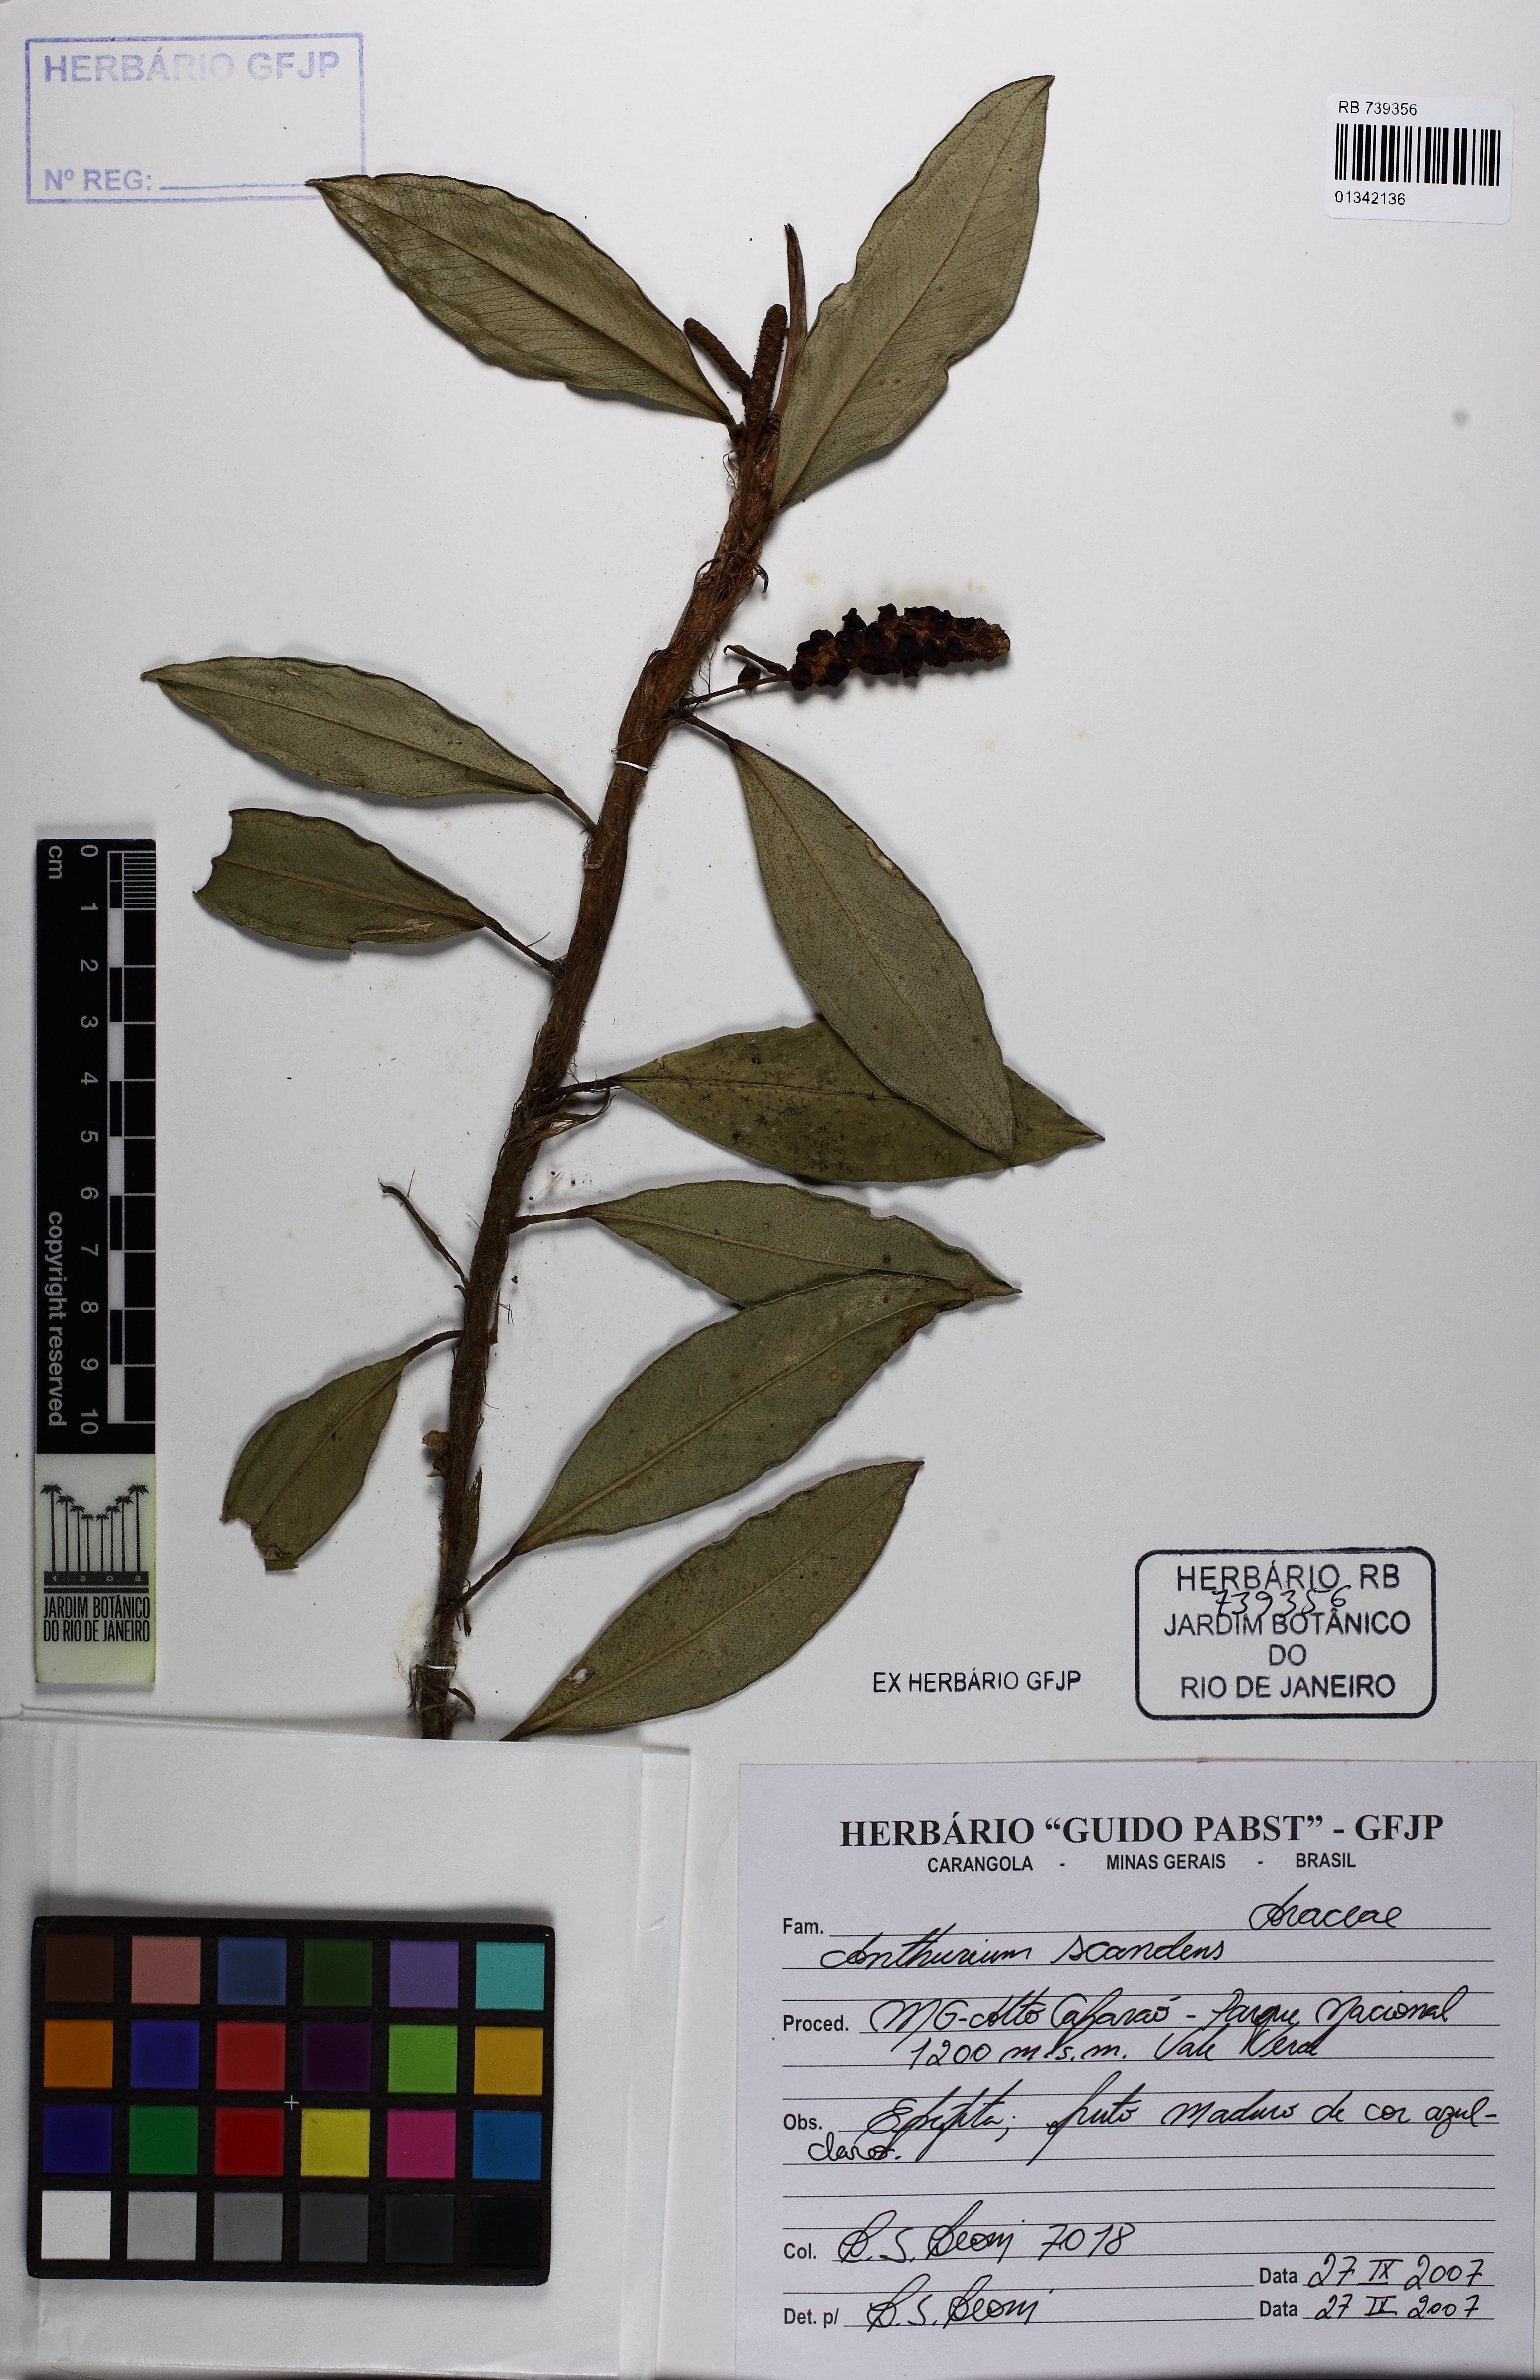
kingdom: Plantae
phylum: Tracheophyta
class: Liliopsida
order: Alismatales
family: Araceae
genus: Anthurium
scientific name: Anthurium scandens
